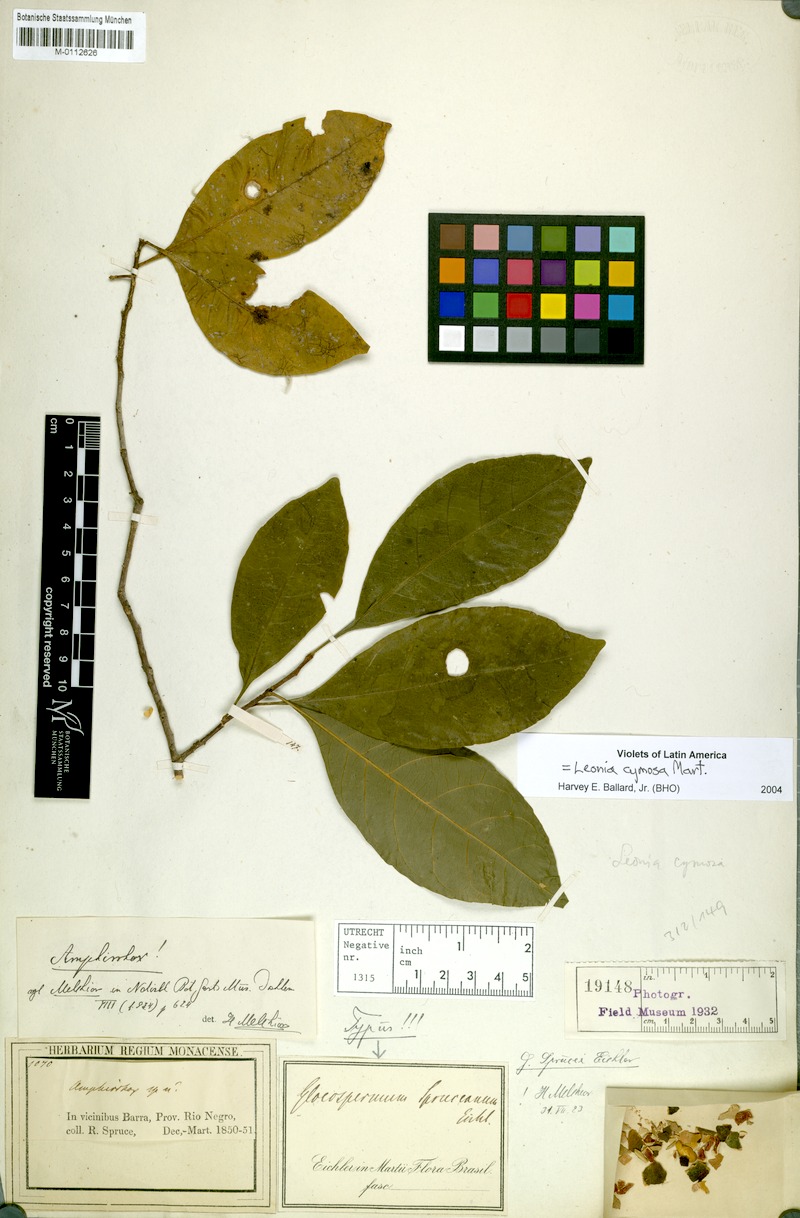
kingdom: Plantae
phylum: Tracheophyta
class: Magnoliopsida
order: Malpighiales
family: Violaceae
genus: Leonia
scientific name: Leonia cymosa
